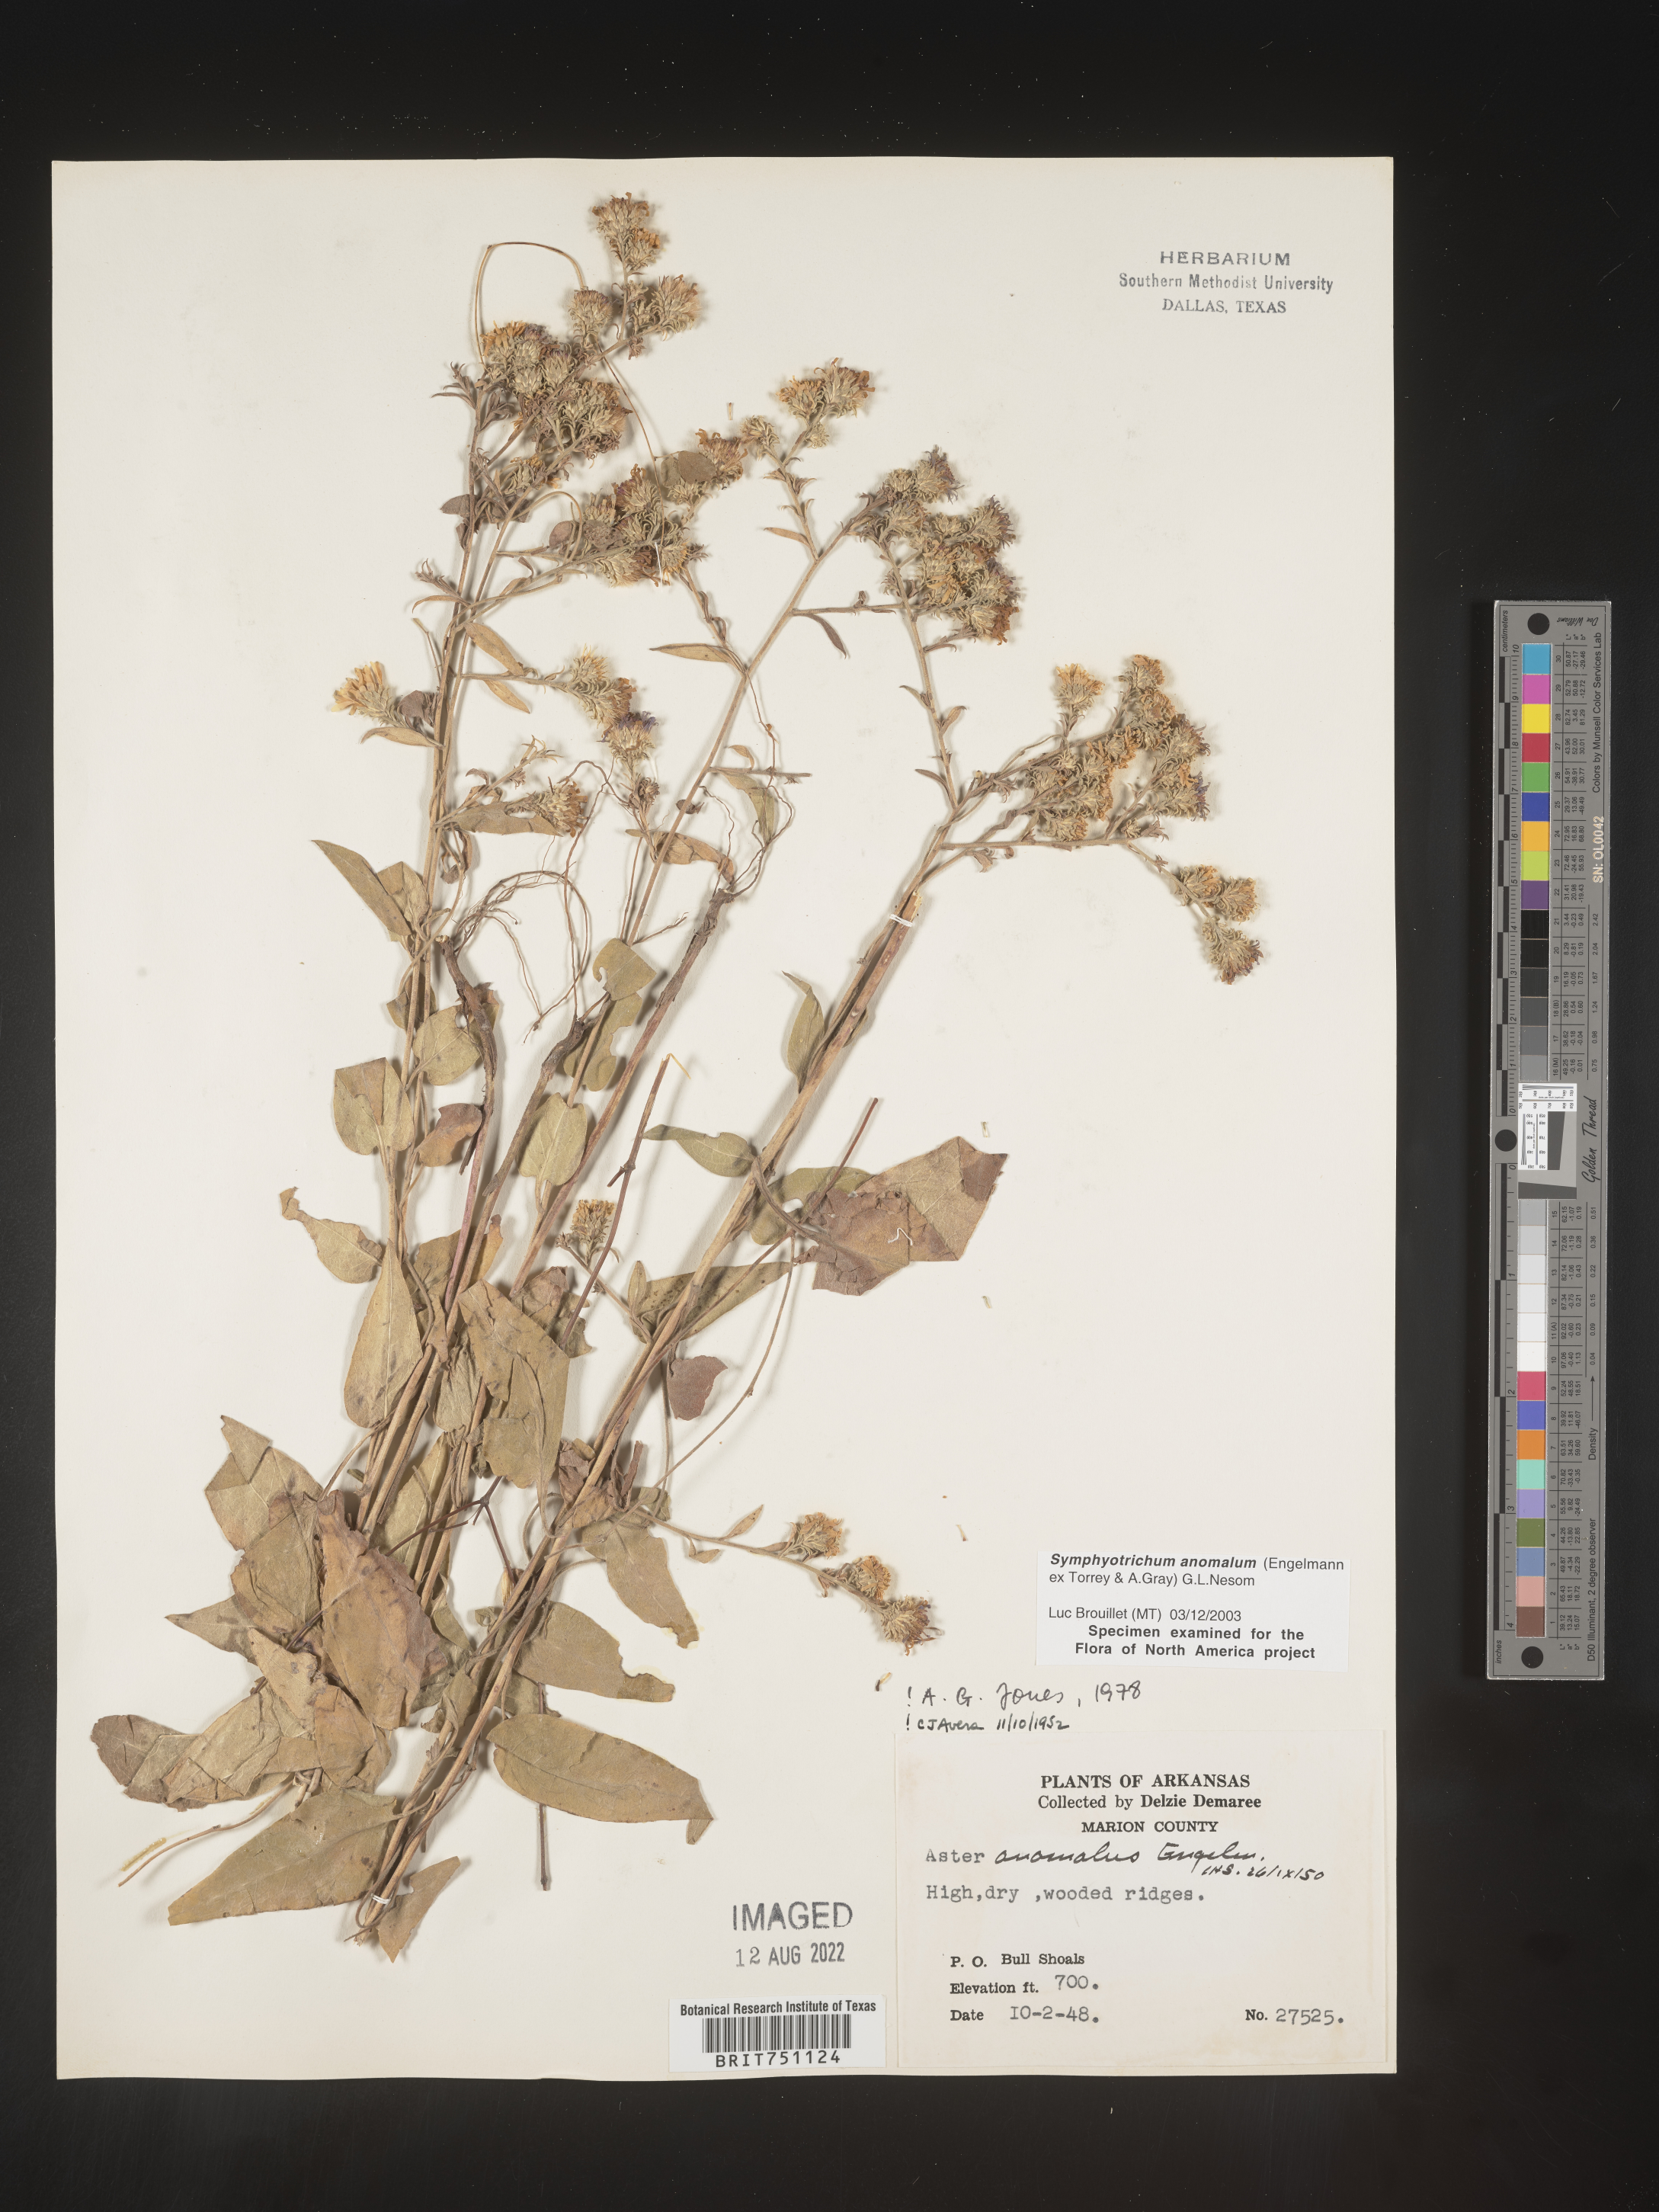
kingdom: Plantae
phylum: Tracheophyta
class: Magnoliopsida
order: Asterales
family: Asteraceae
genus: Symphyotrichum
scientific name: Symphyotrichum anomalum
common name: Many-ray aster
